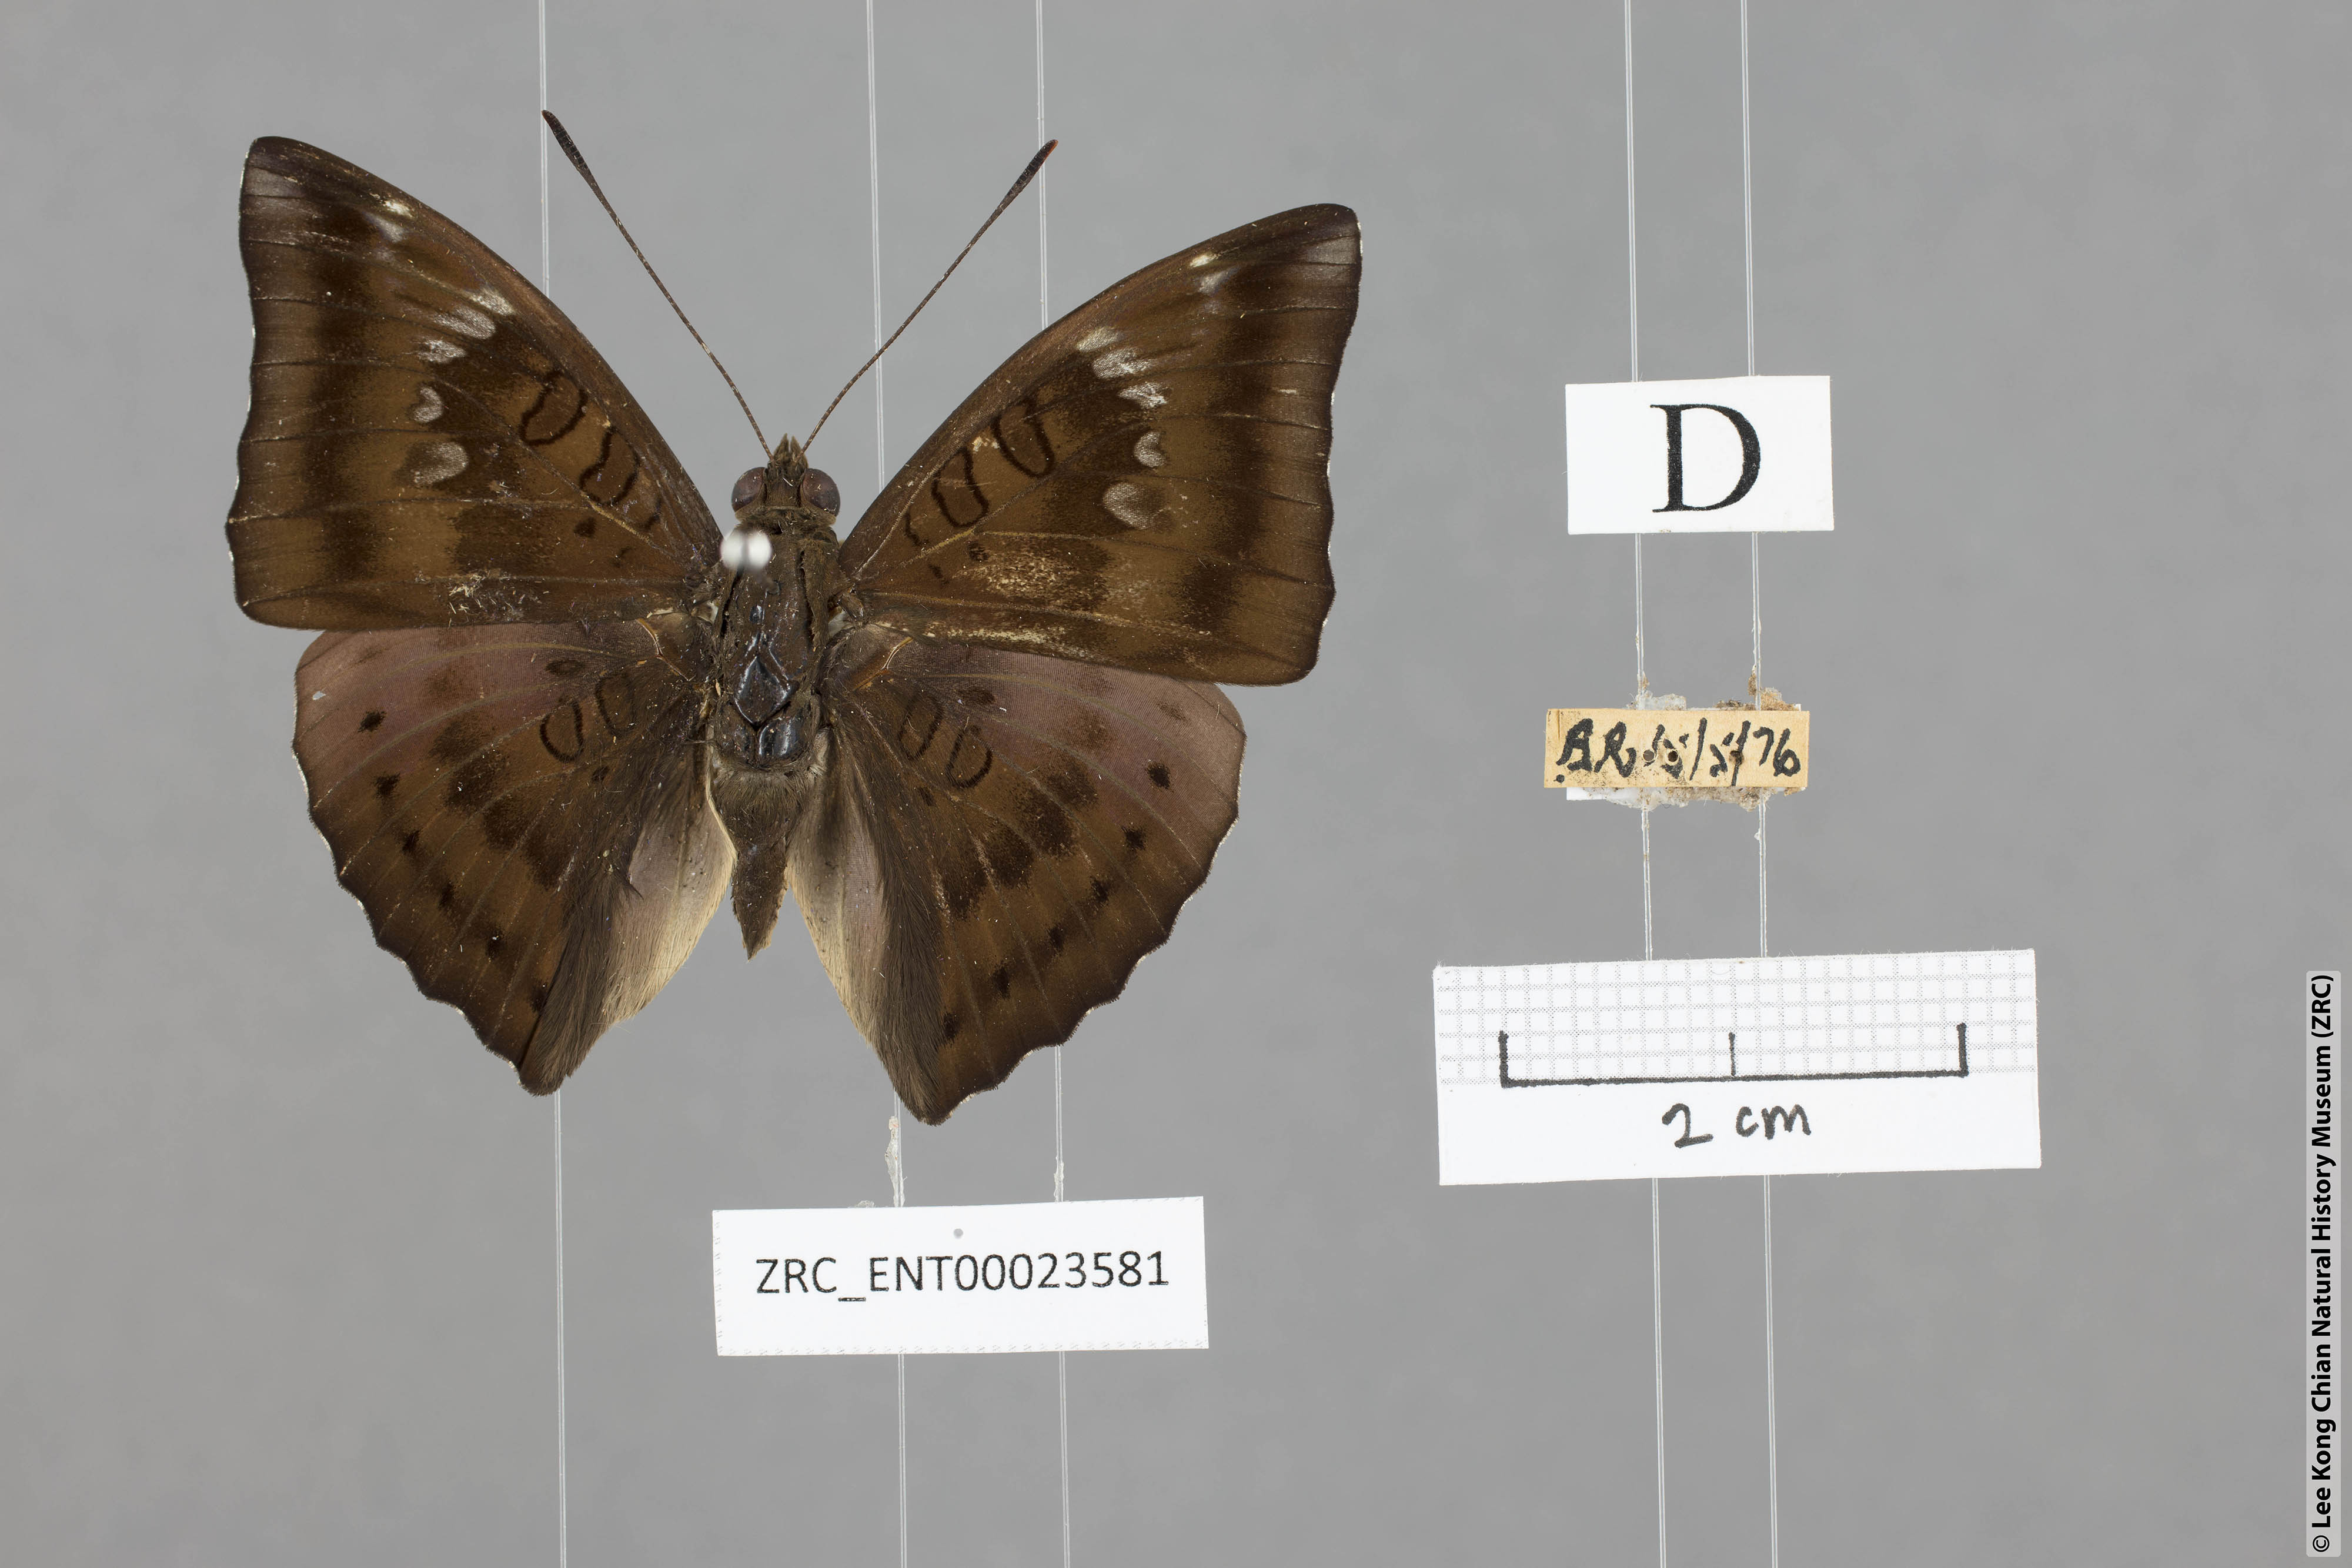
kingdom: Animalia
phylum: Arthropoda
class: Insecta
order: Lepidoptera
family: Nymphalidae
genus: Euthalia
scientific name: Euthalia aconthea
